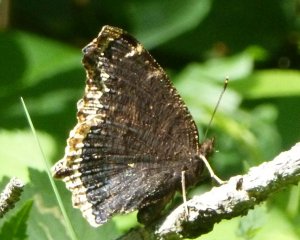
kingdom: Animalia
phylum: Arthropoda
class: Insecta
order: Lepidoptera
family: Nymphalidae
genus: Nymphalis
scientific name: Nymphalis antiopa
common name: Mourning Cloak
